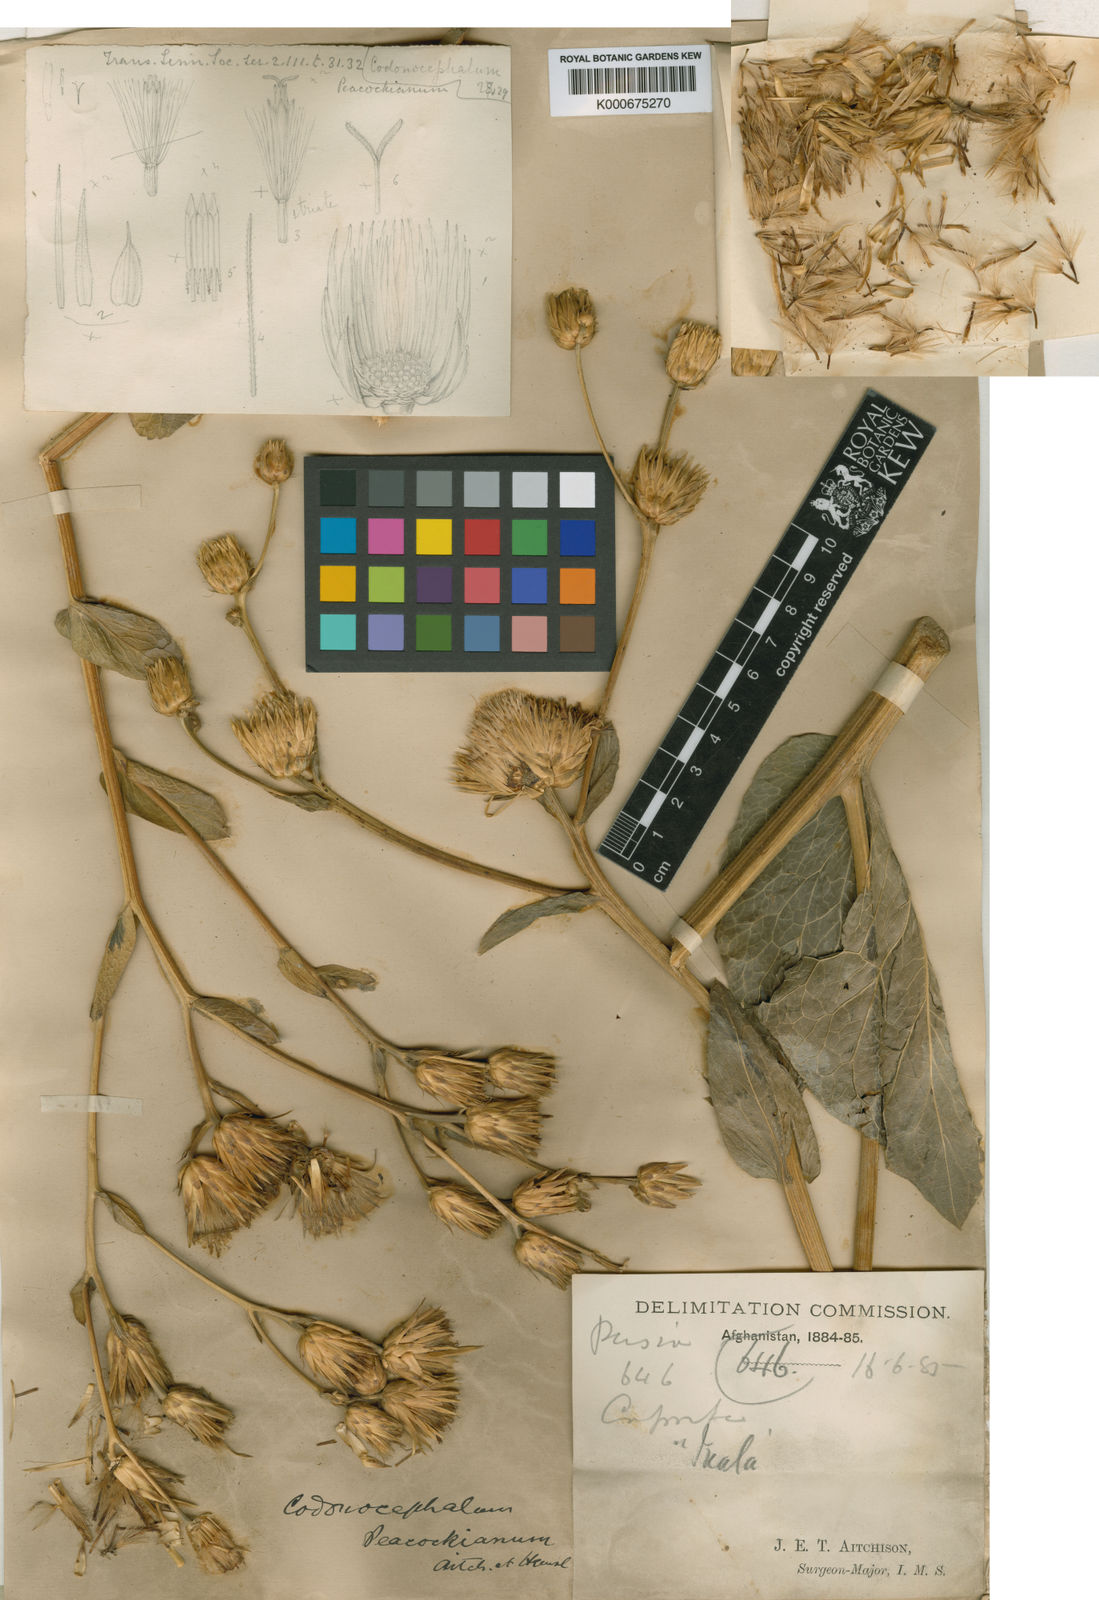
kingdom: Plantae
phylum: Tracheophyta
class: Magnoliopsida
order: Asterales
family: Asteraceae
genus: Inula
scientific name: Inula peacockiana
